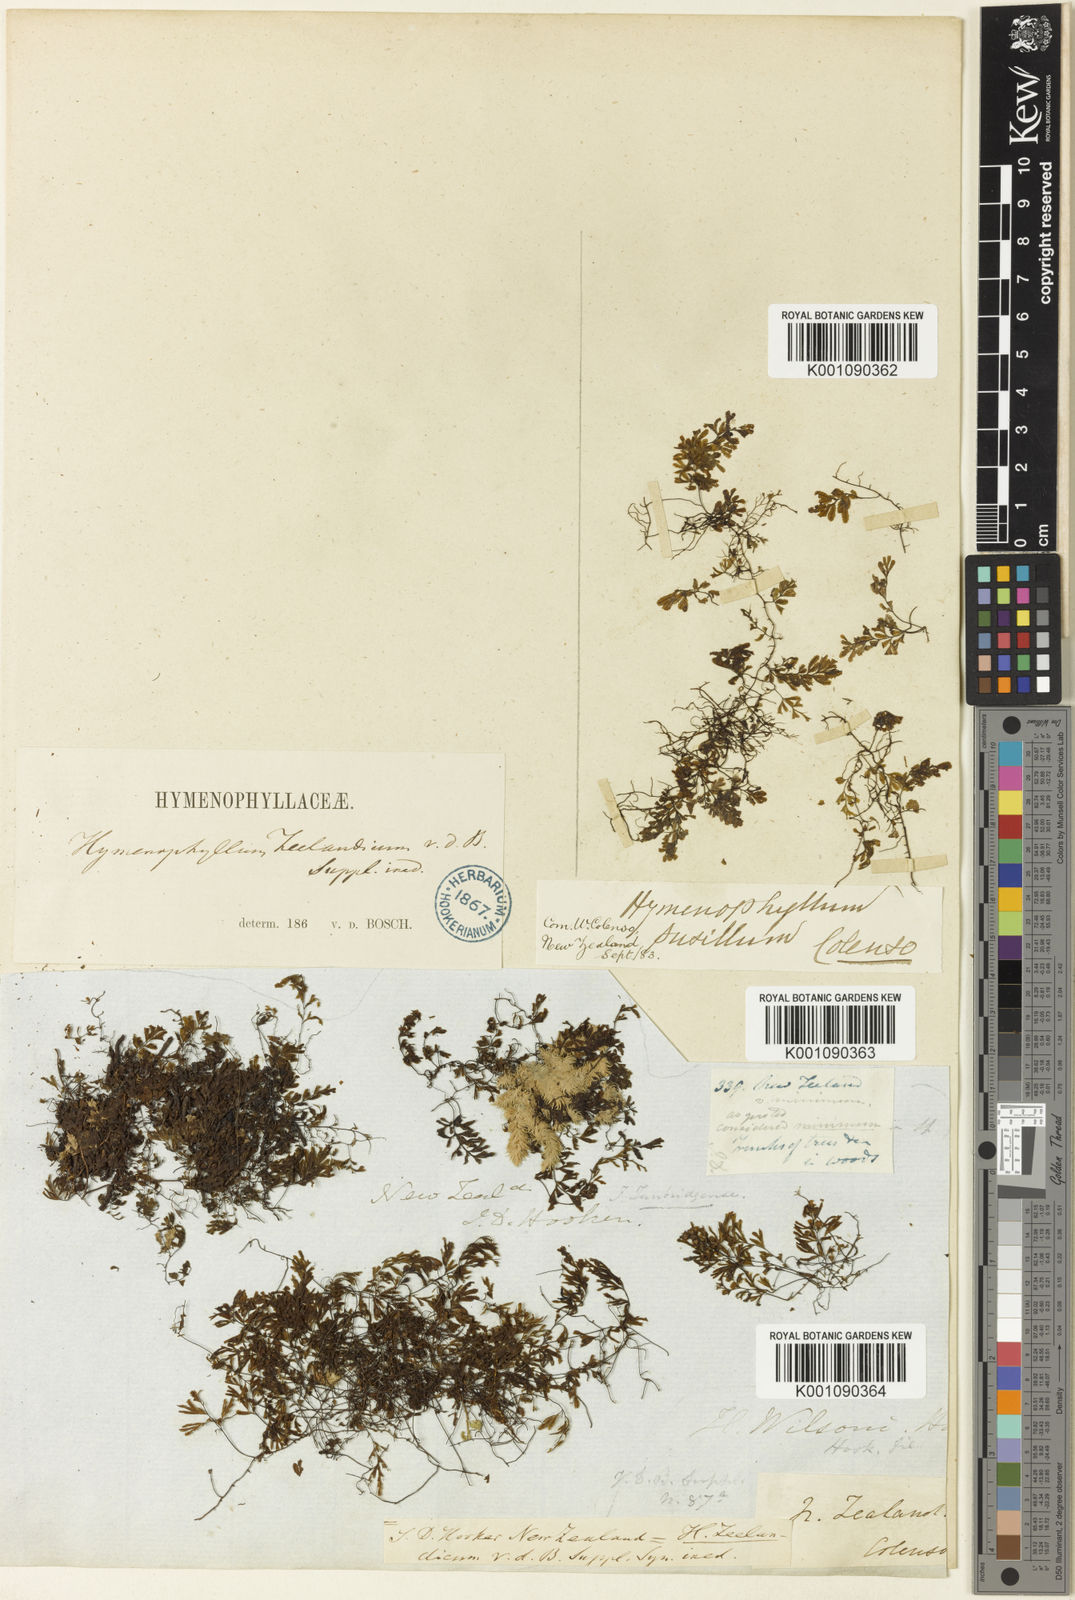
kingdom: Plantae
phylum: Tracheophyta
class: Polypodiopsida
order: Hymenophyllales
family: Hymenophyllaceae
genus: Hymenophyllum
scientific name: Hymenophyllum revolutum
